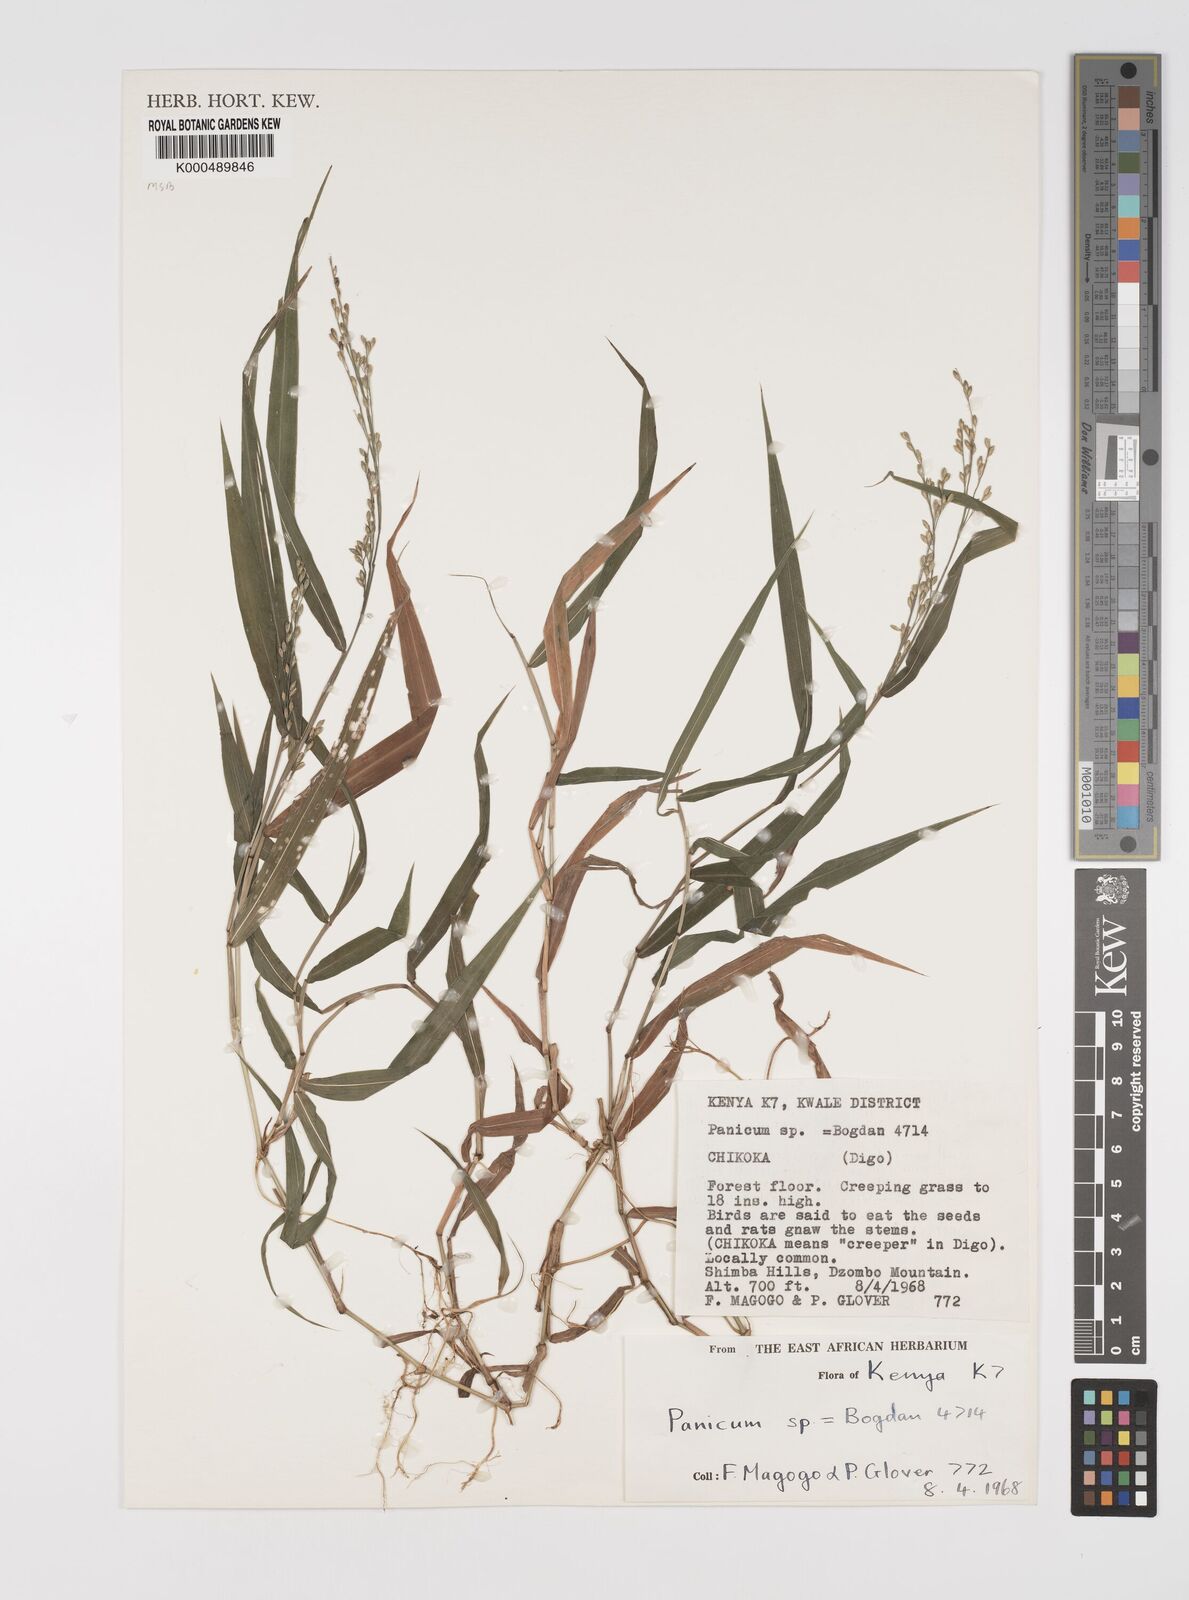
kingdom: Plantae
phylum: Tracheophyta
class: Liliopsida
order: Poales
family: Poaceae
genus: Acroceras
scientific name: Acroceras attenuatum
